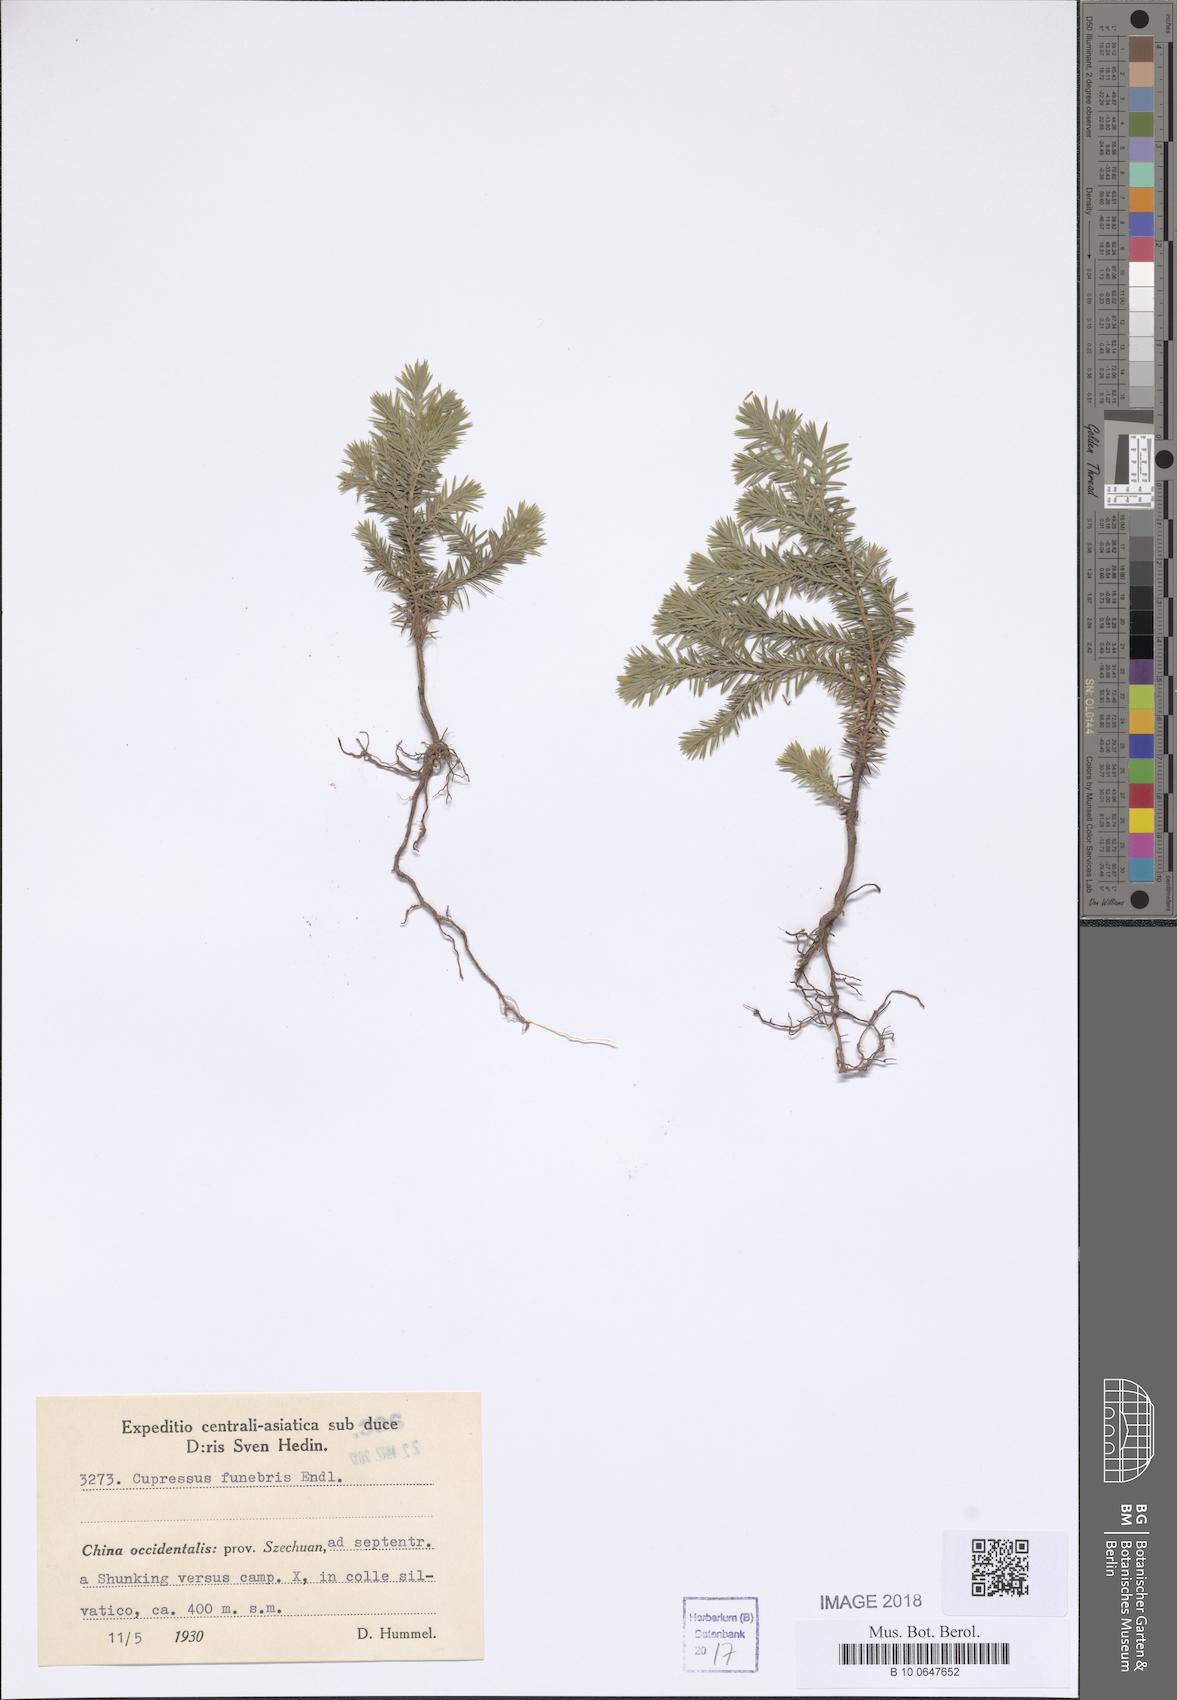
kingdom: Plantae
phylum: Tracheophyta
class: Pinopsida
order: Pinales
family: Cupressaceae
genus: Cupressus
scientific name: Cupressus funebris
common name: Chinese weeping cypress
